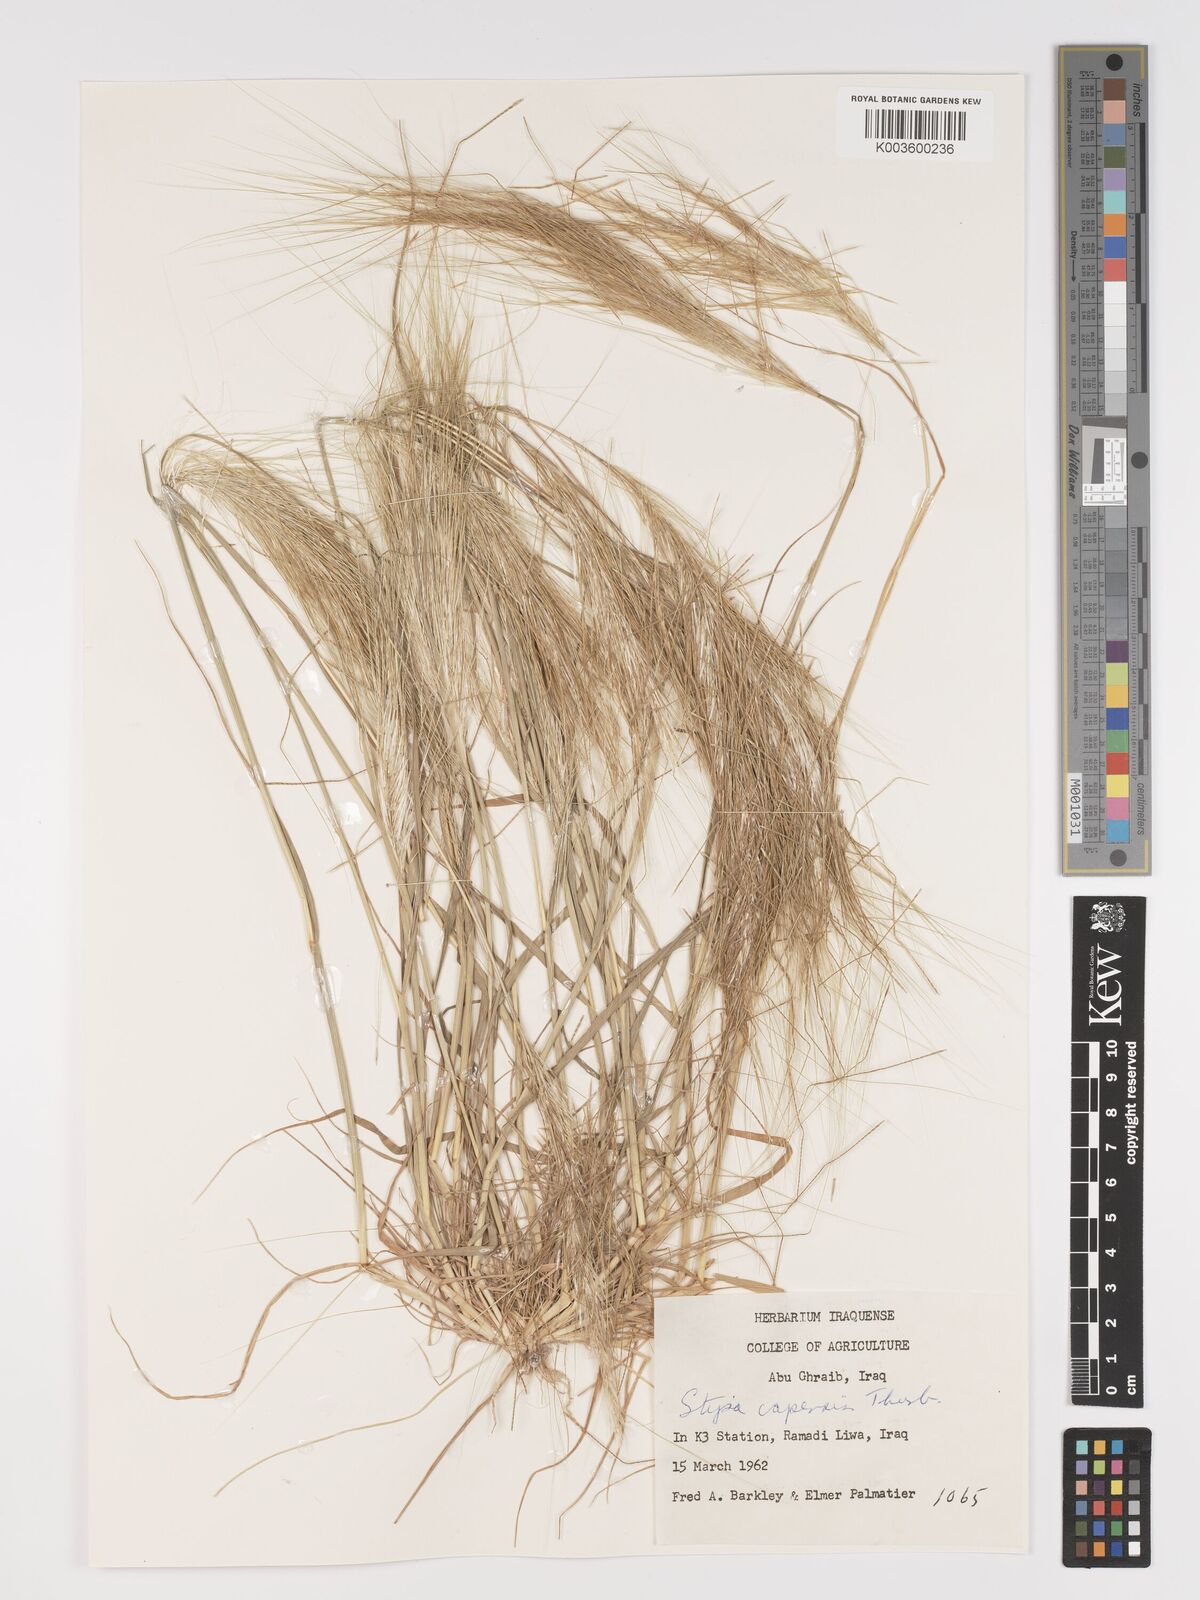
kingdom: Plantae
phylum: Tracheophyta
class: Liliopsida
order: Poales
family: Poaceae
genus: Stipellula
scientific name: Stipellula capensis
